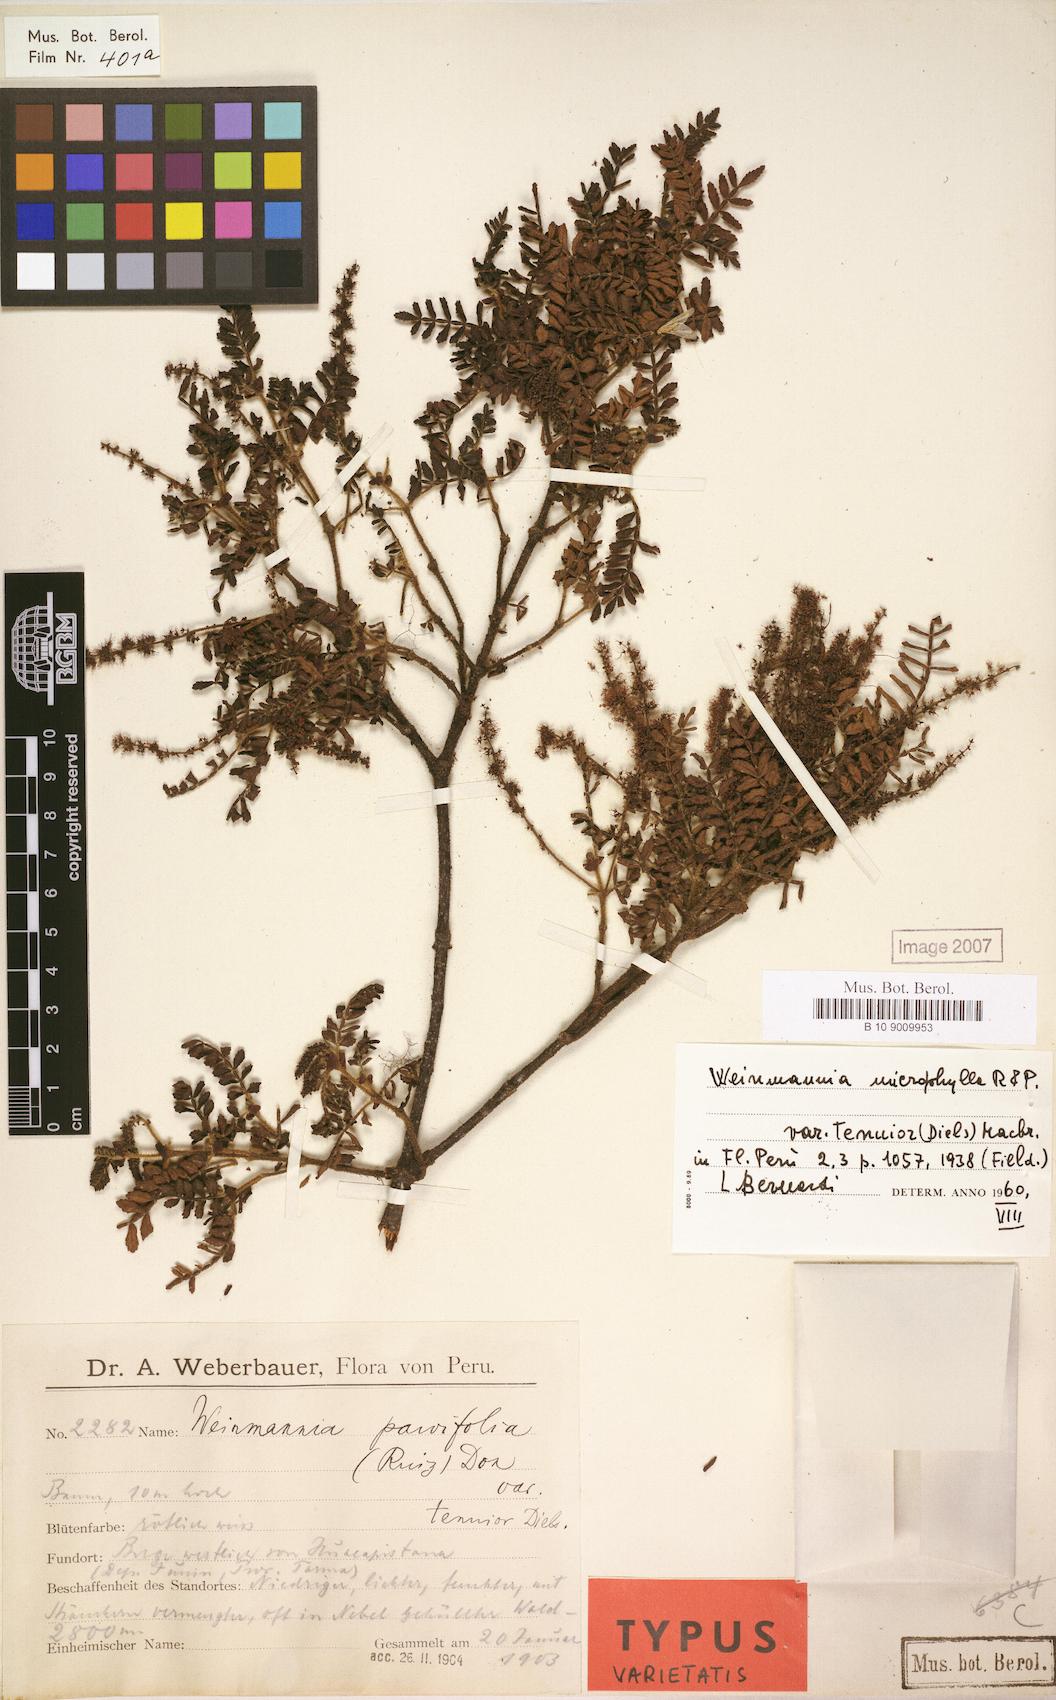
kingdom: Plantae
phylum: Tracheophyta
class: Magnoliopsida
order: Oxalidales
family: Cunoniaceae
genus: Weinmannia
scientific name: Weinmannia microphylla
